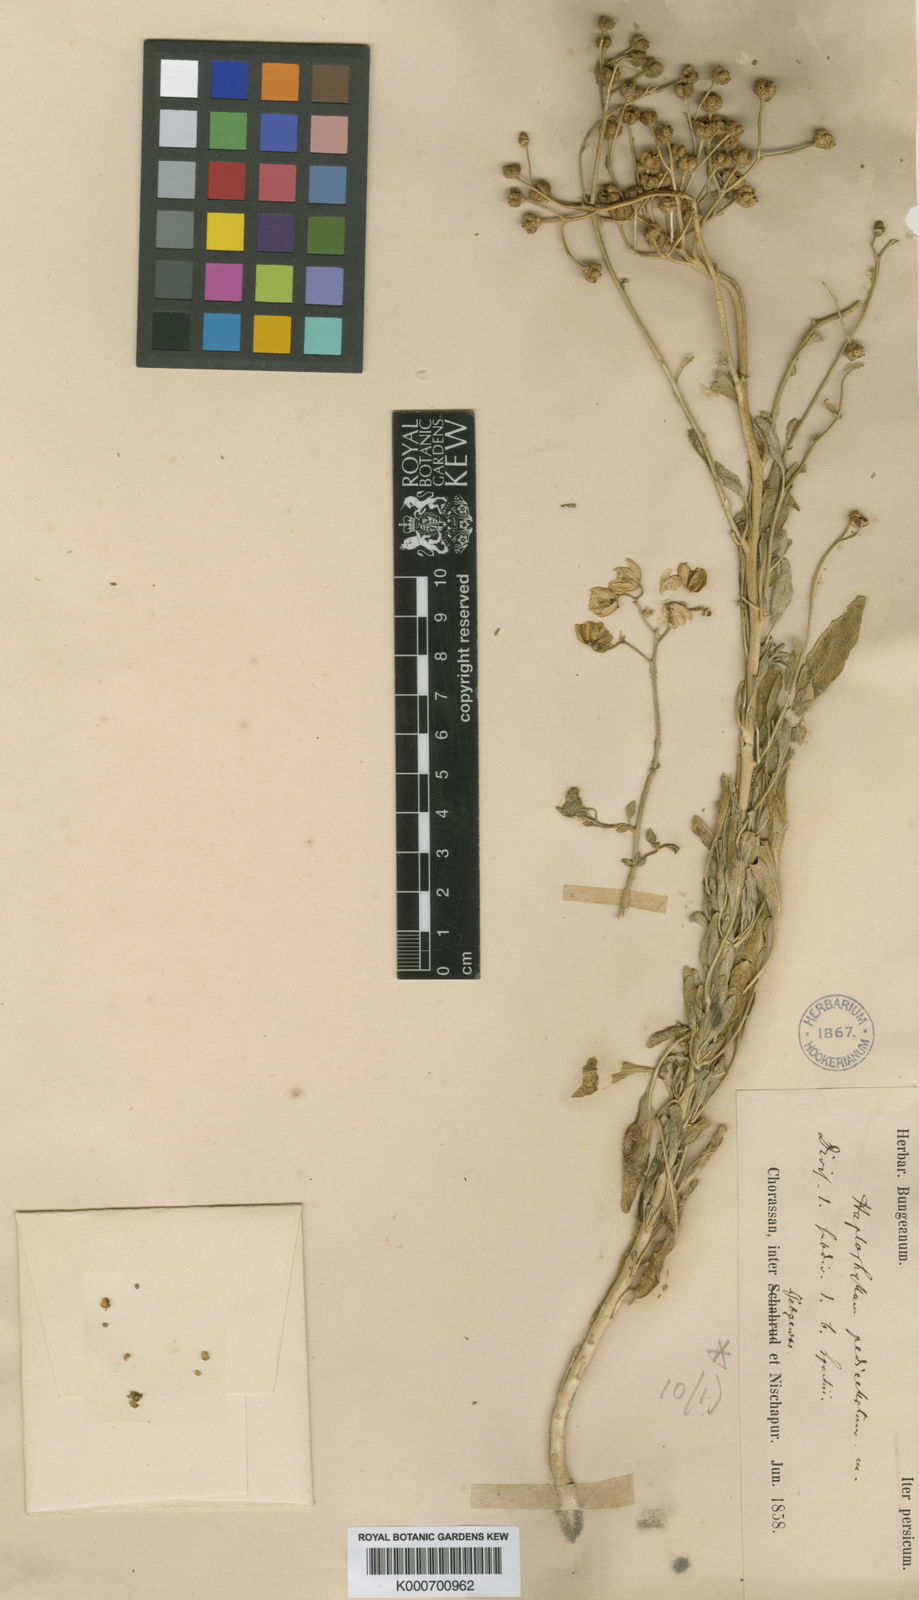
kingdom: Plantae
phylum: Tracheophyta
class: Magnoliopsida
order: Sapindales
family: Rutaceae
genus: Haplophyllum
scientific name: Haplophyllum
